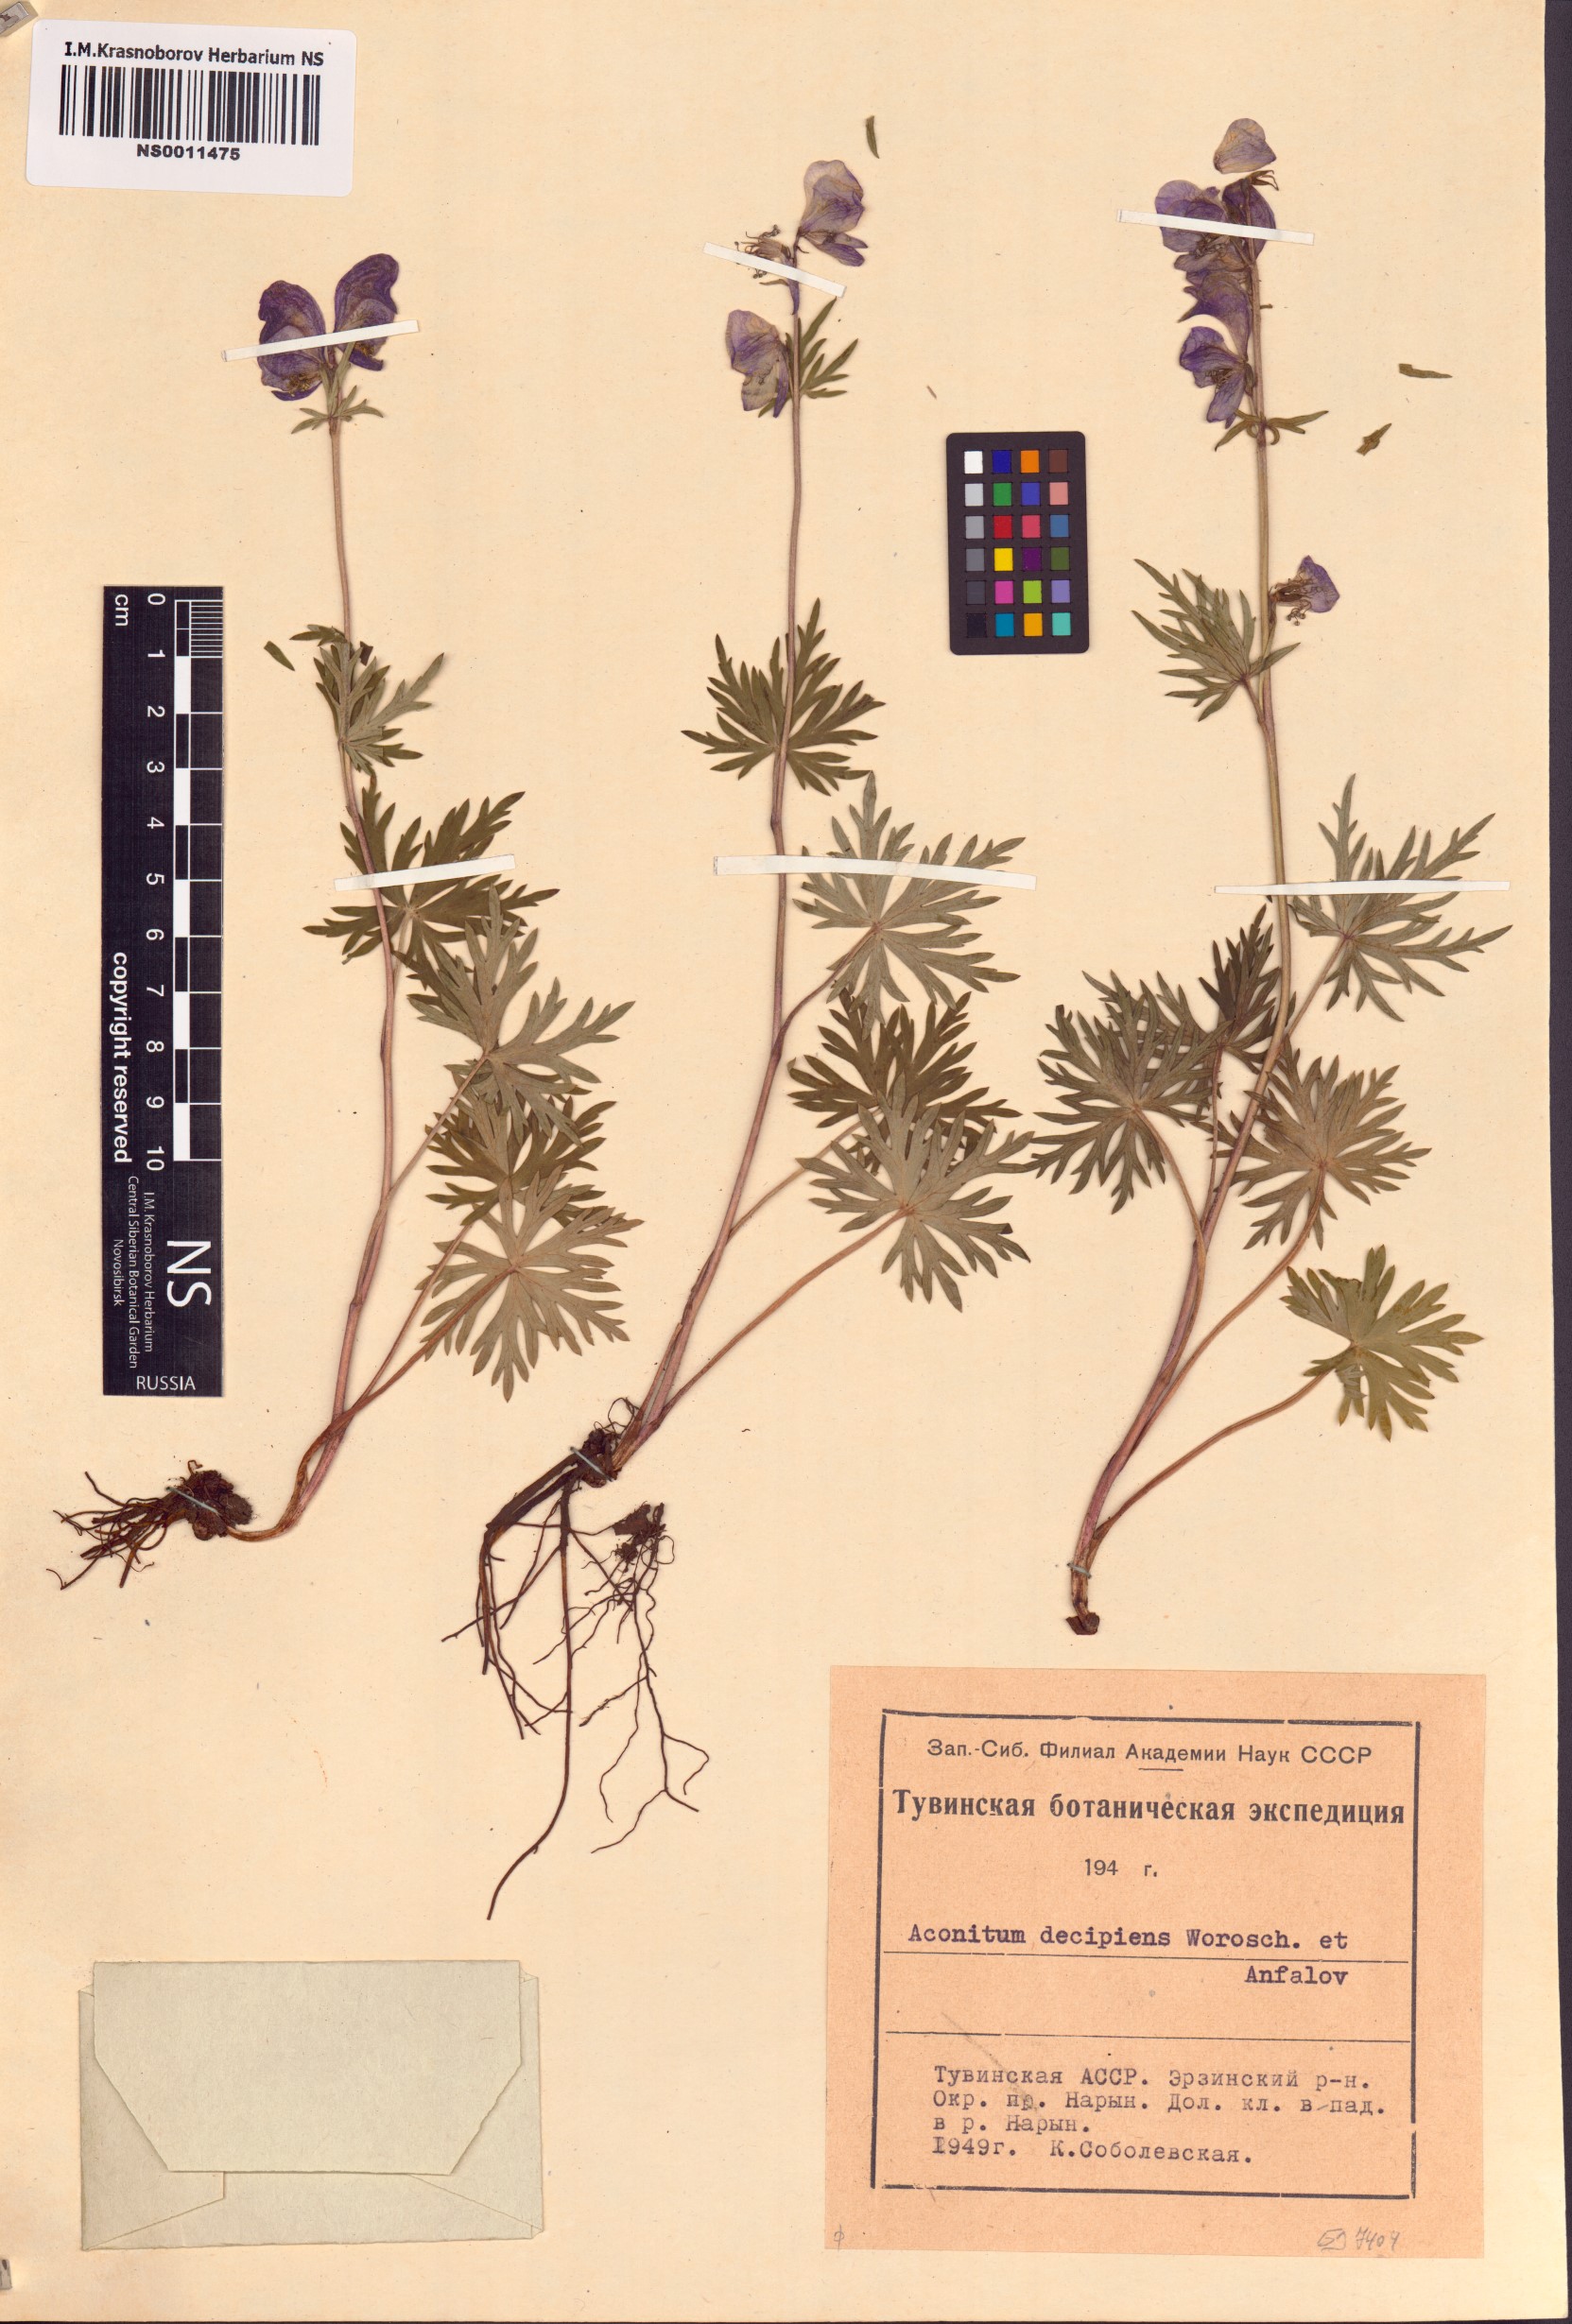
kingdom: Plantae
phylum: Tracheophyta
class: Magnoliopsida
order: Ranunculales
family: Ranunculaceae
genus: Aconitum
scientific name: Aconitum decipiens
